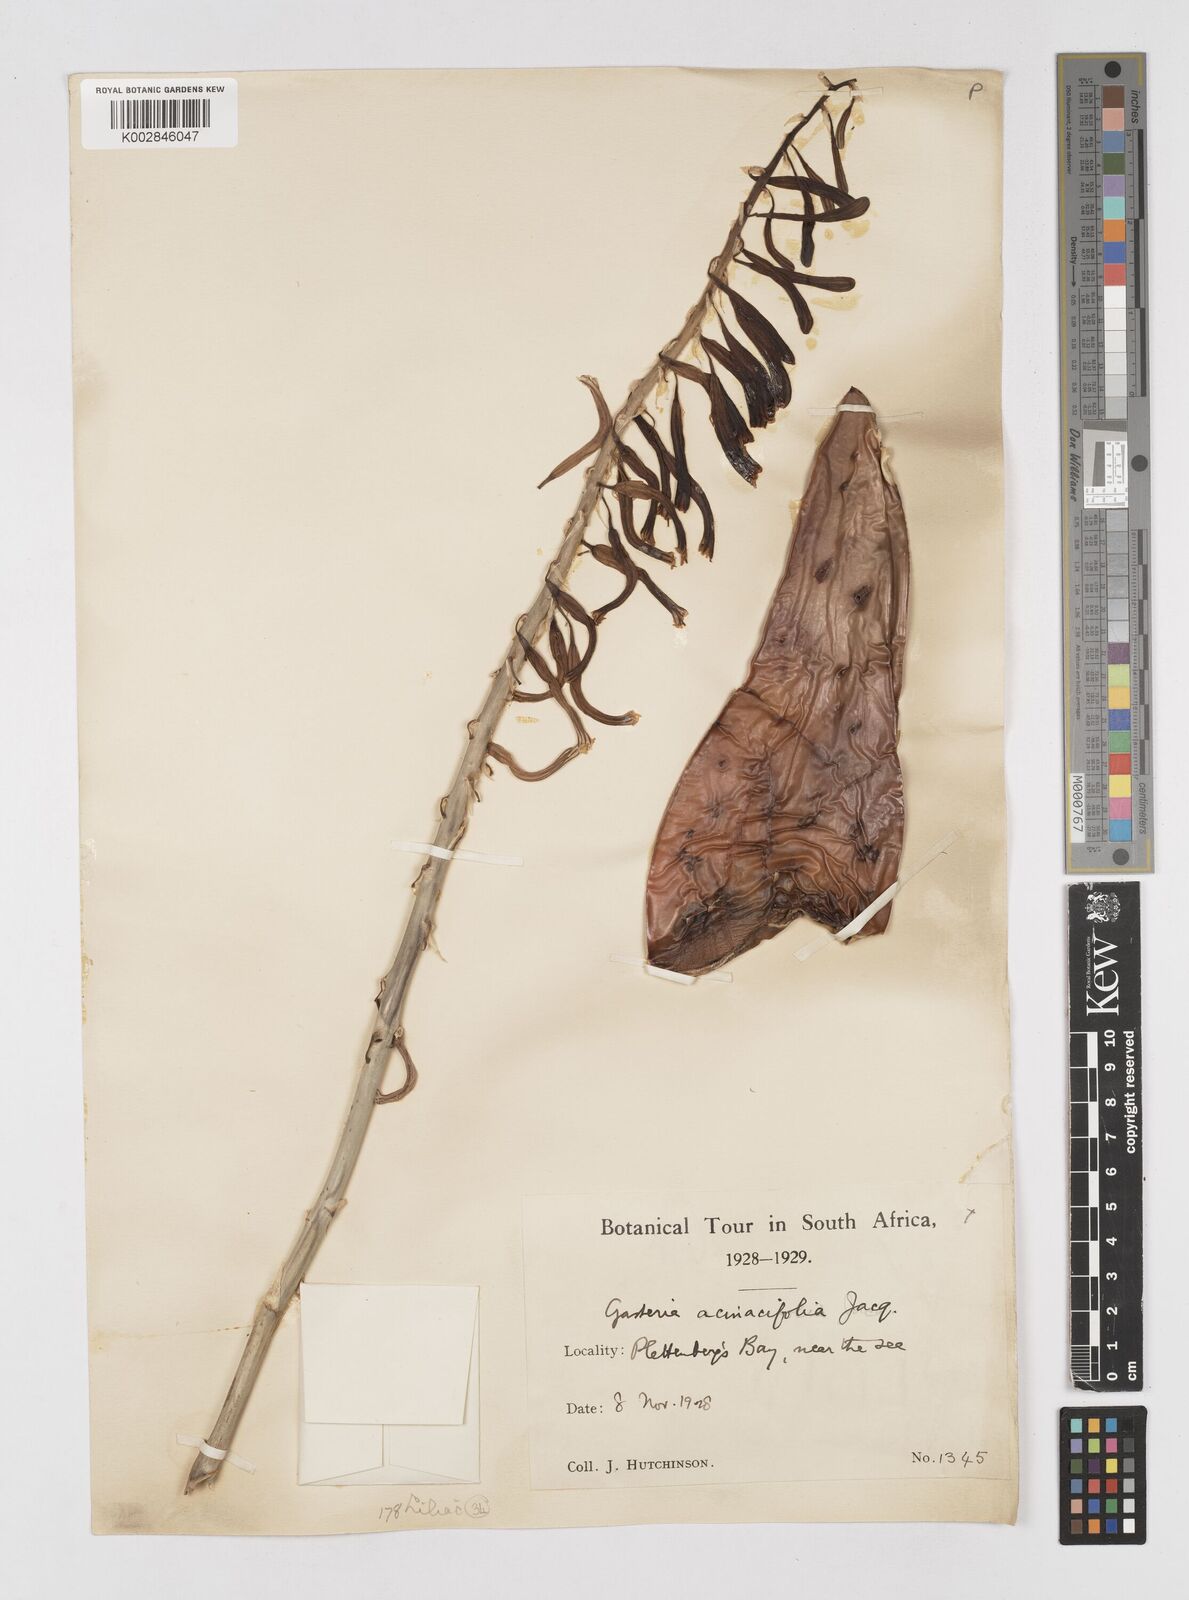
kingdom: Plantae
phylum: Tracheophyta
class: Liliopsida
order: Asparagales
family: Asphodelaceae
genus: Gasteria
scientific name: Gasteria acinacifolia
